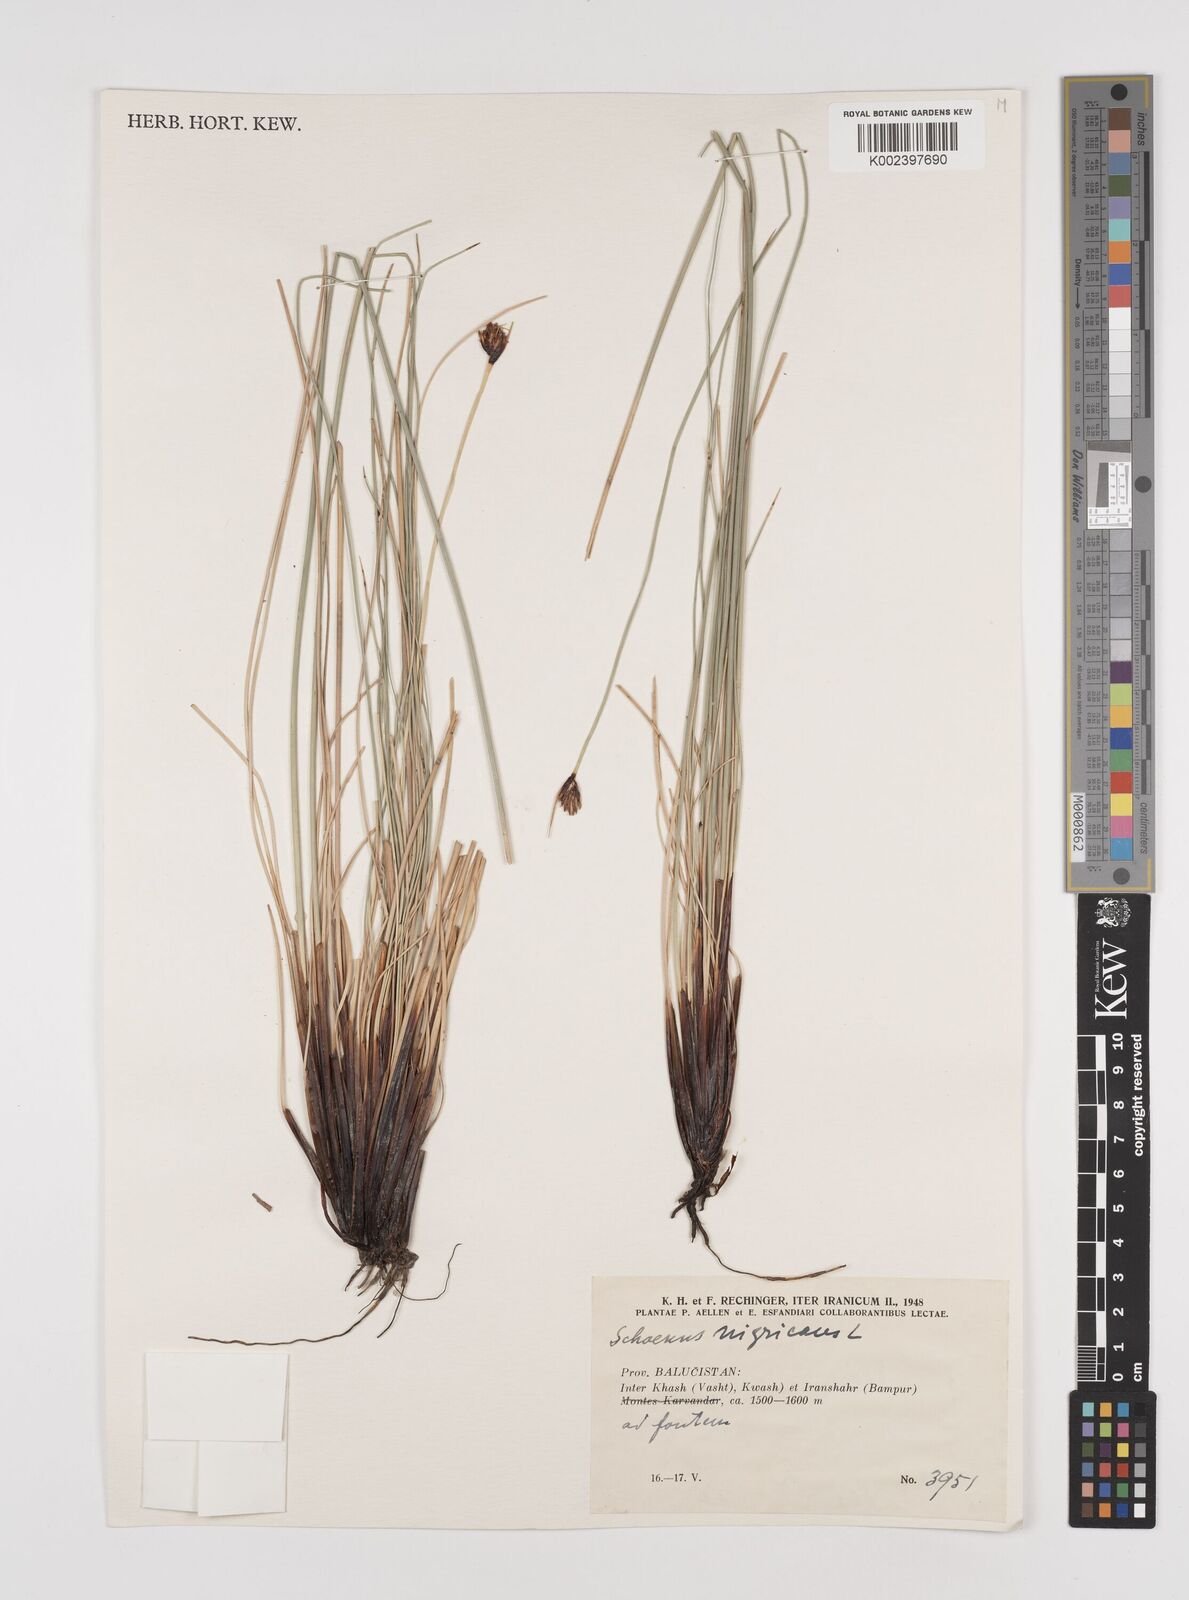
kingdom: Plantae
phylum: Tracheophyta
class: Liliopsida
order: Poales
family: Cyperaceae
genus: Schoenus
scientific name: Schoenus nigricans
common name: Black bog-rush
